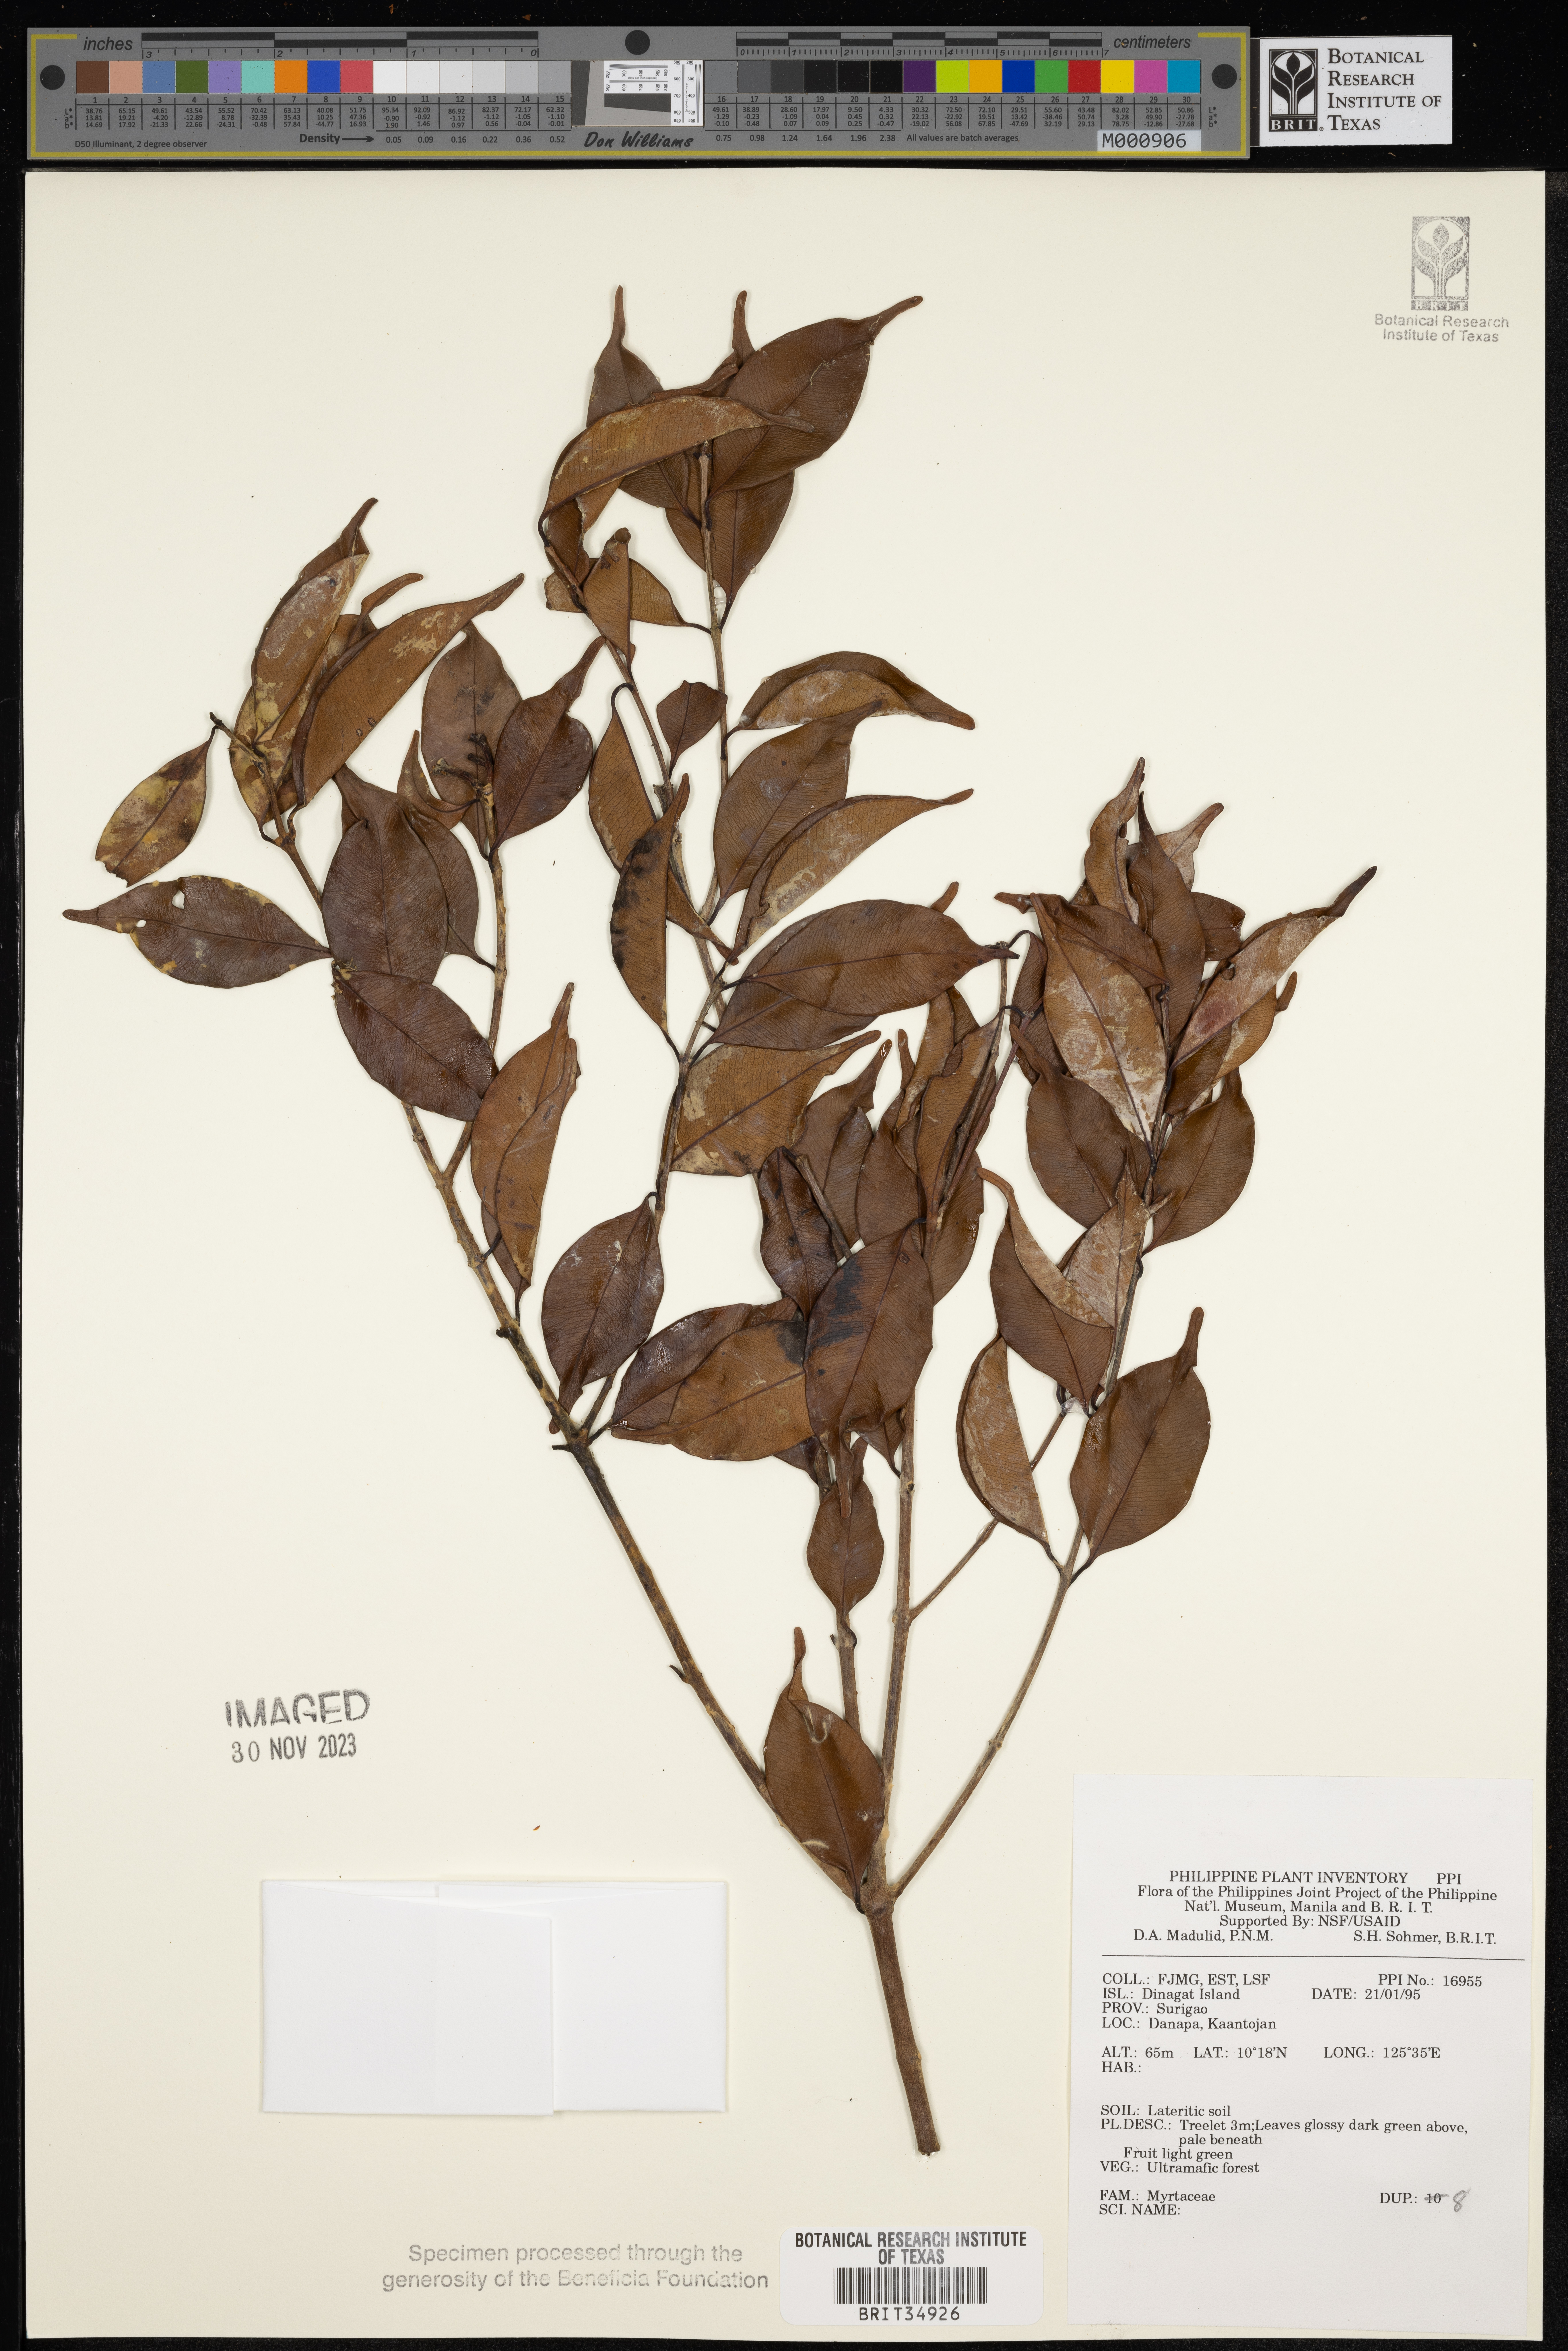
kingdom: Plantae
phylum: Tracheophyta
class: Magnoliopsida
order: Myrtales
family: Myrtaceae
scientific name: Myrtaceae
